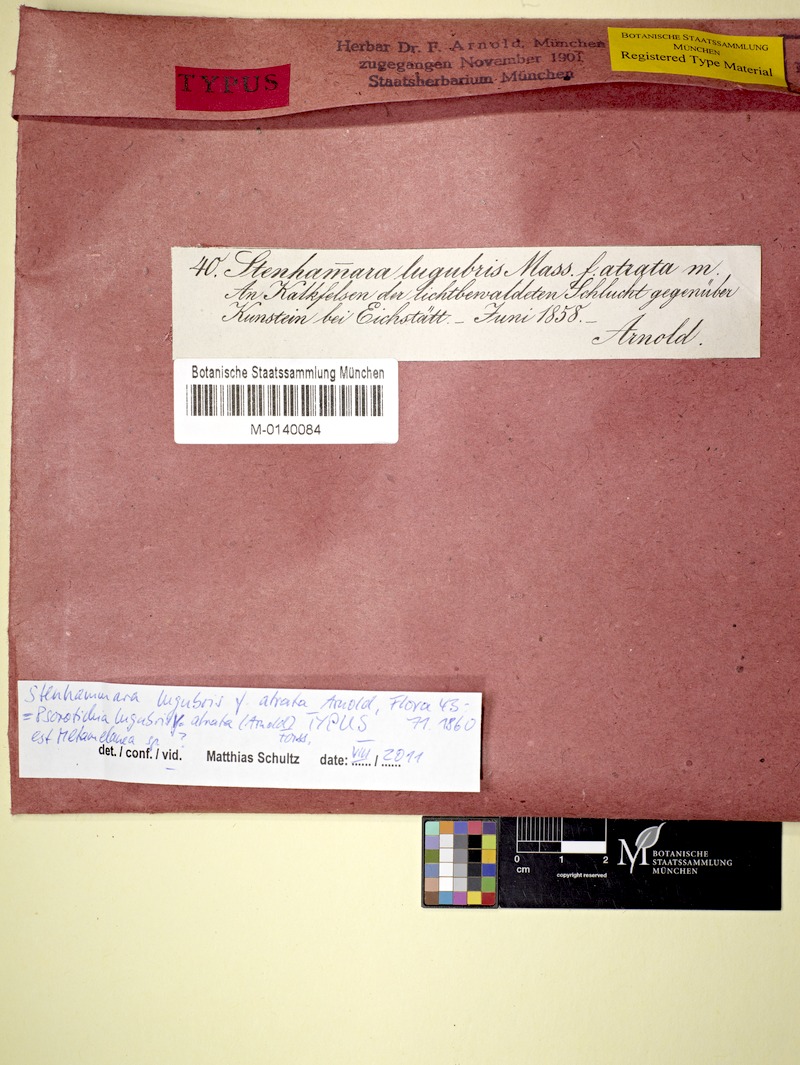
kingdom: Fungi
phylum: Ascomycota
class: Lecanoromycetes
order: Schaereriales
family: Schaereriaceae
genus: Ropalospora
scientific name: Ropalospora lugubris
